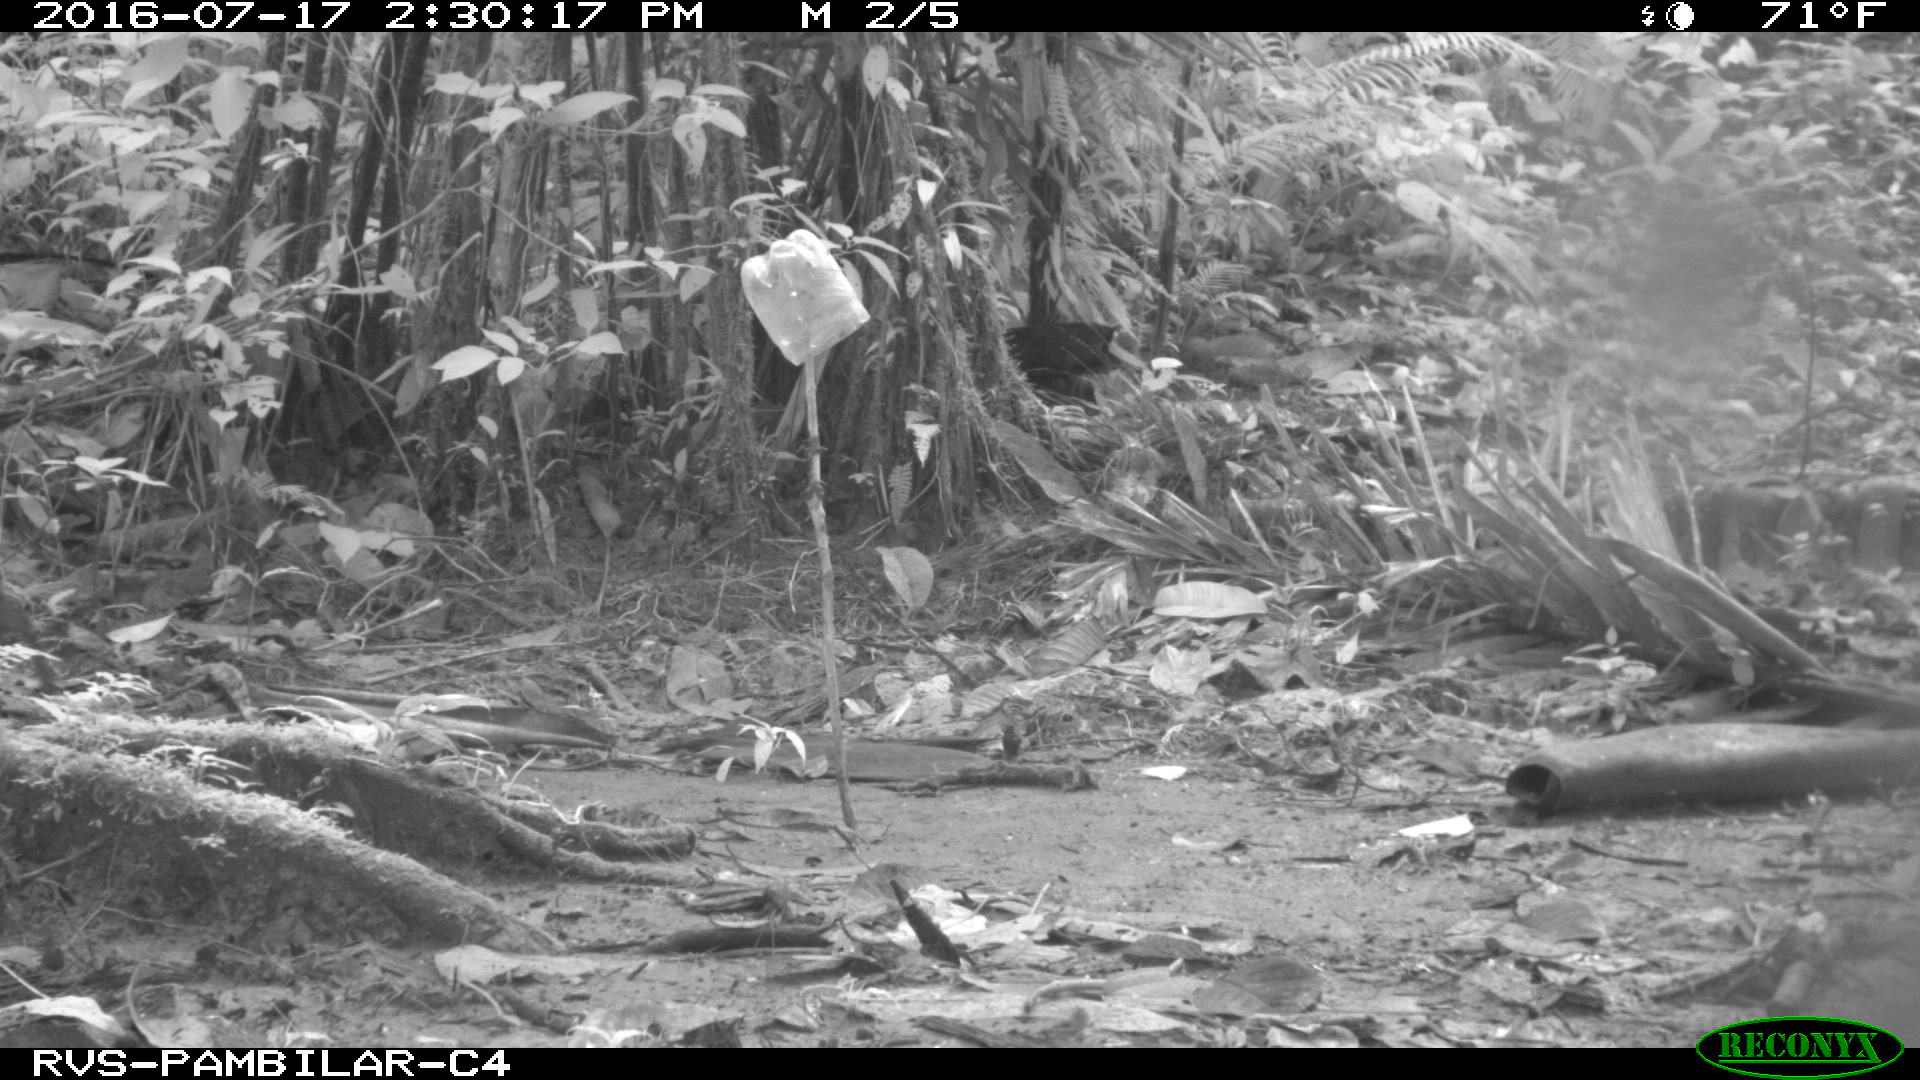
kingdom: Animalia
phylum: Chordata
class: Mammalia
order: Rodentia
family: Dasyproctidae
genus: Dasyprocta
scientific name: Dasyprocta punctata
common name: Central american agouti
